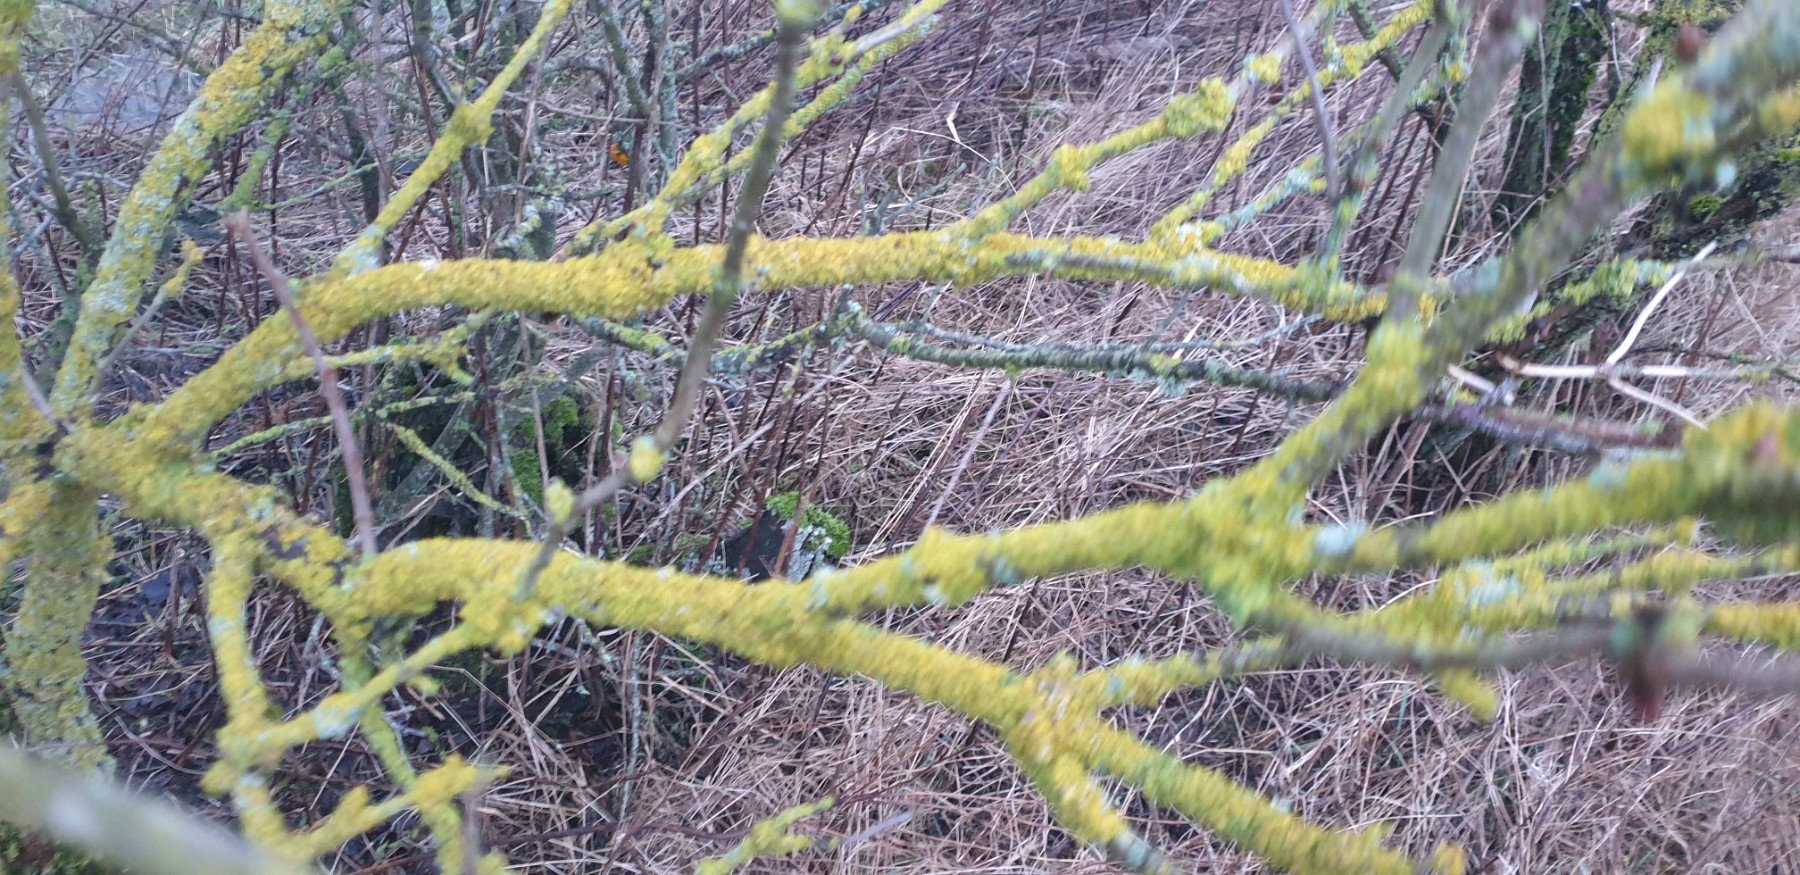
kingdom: Fungi
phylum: Ascomycota
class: Lecanoromycetes
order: Teloschistales
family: Teloschistaceae
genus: Xanthoria
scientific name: Xanthoria parietina
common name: almindelig væggelav
